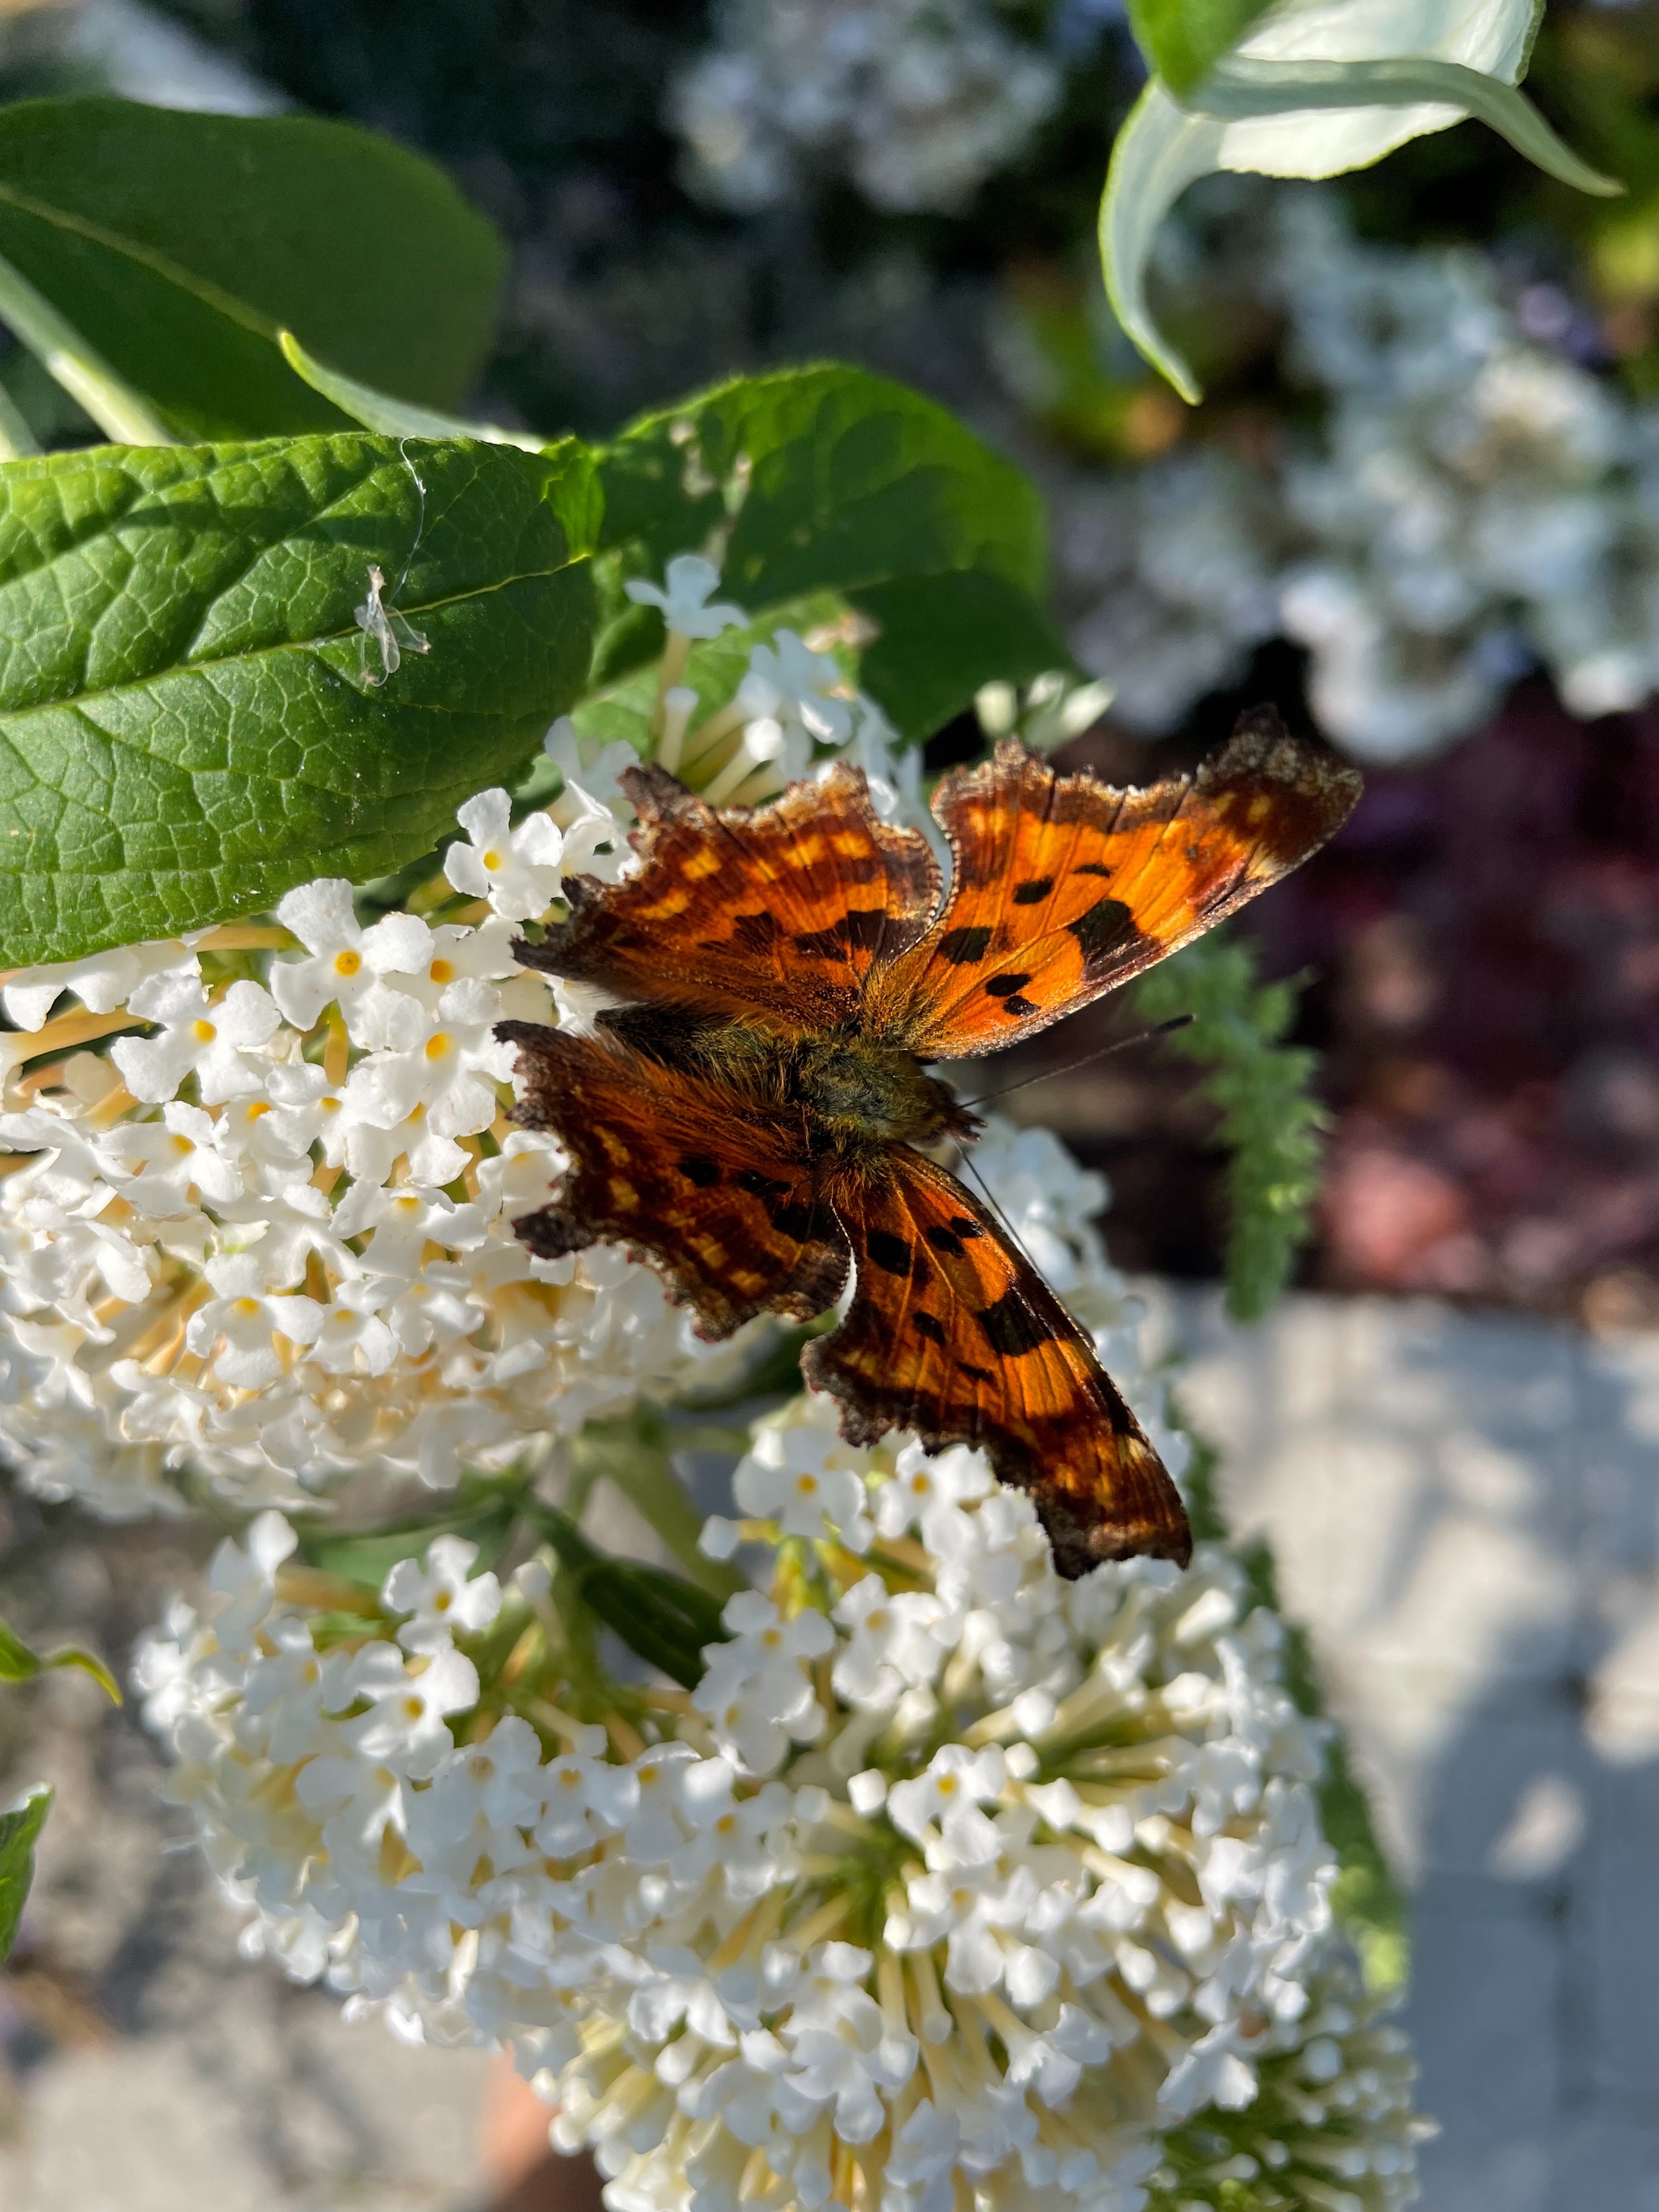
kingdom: Animalia
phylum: Arthropoda
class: Insecta
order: Lepidoptera
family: Nymphalidae
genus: Polygonia
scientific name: Polygonia c-album
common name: Det hvide C
